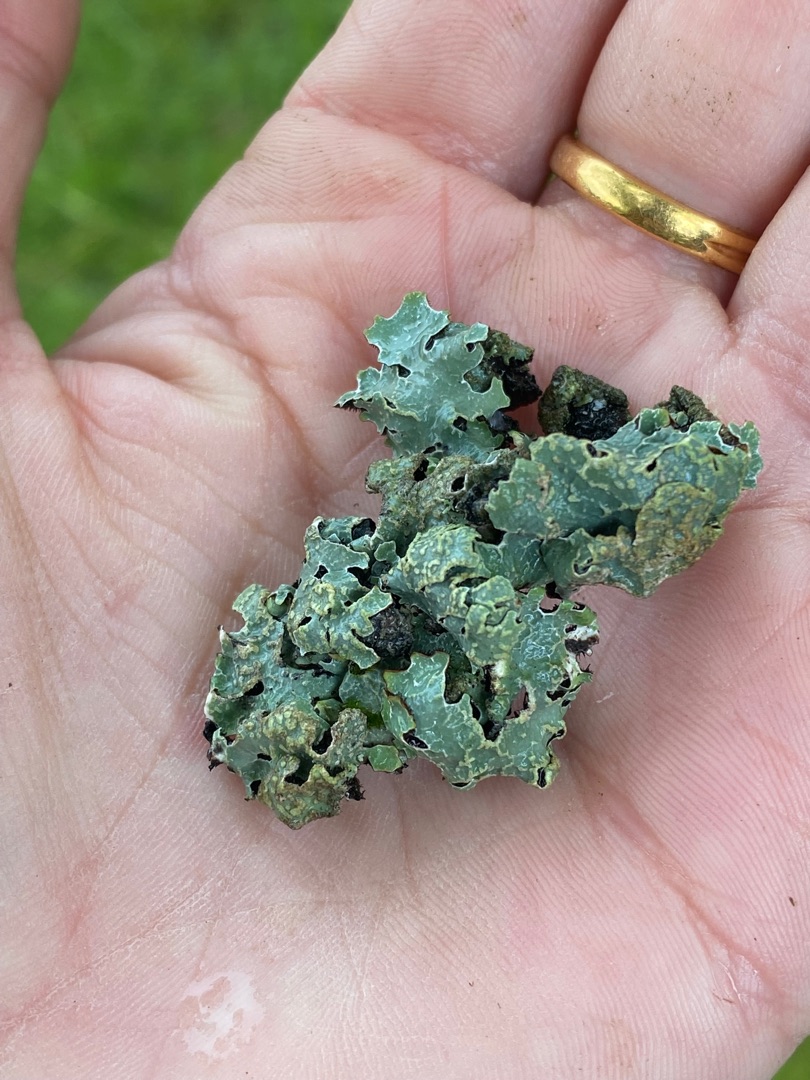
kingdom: Fungi
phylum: Ascomycota
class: Lecanoromycetes
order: Lecanorales
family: Parmeliaceae
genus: Parmelia
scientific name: Parmelia sulcata
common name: Rynket skållav
